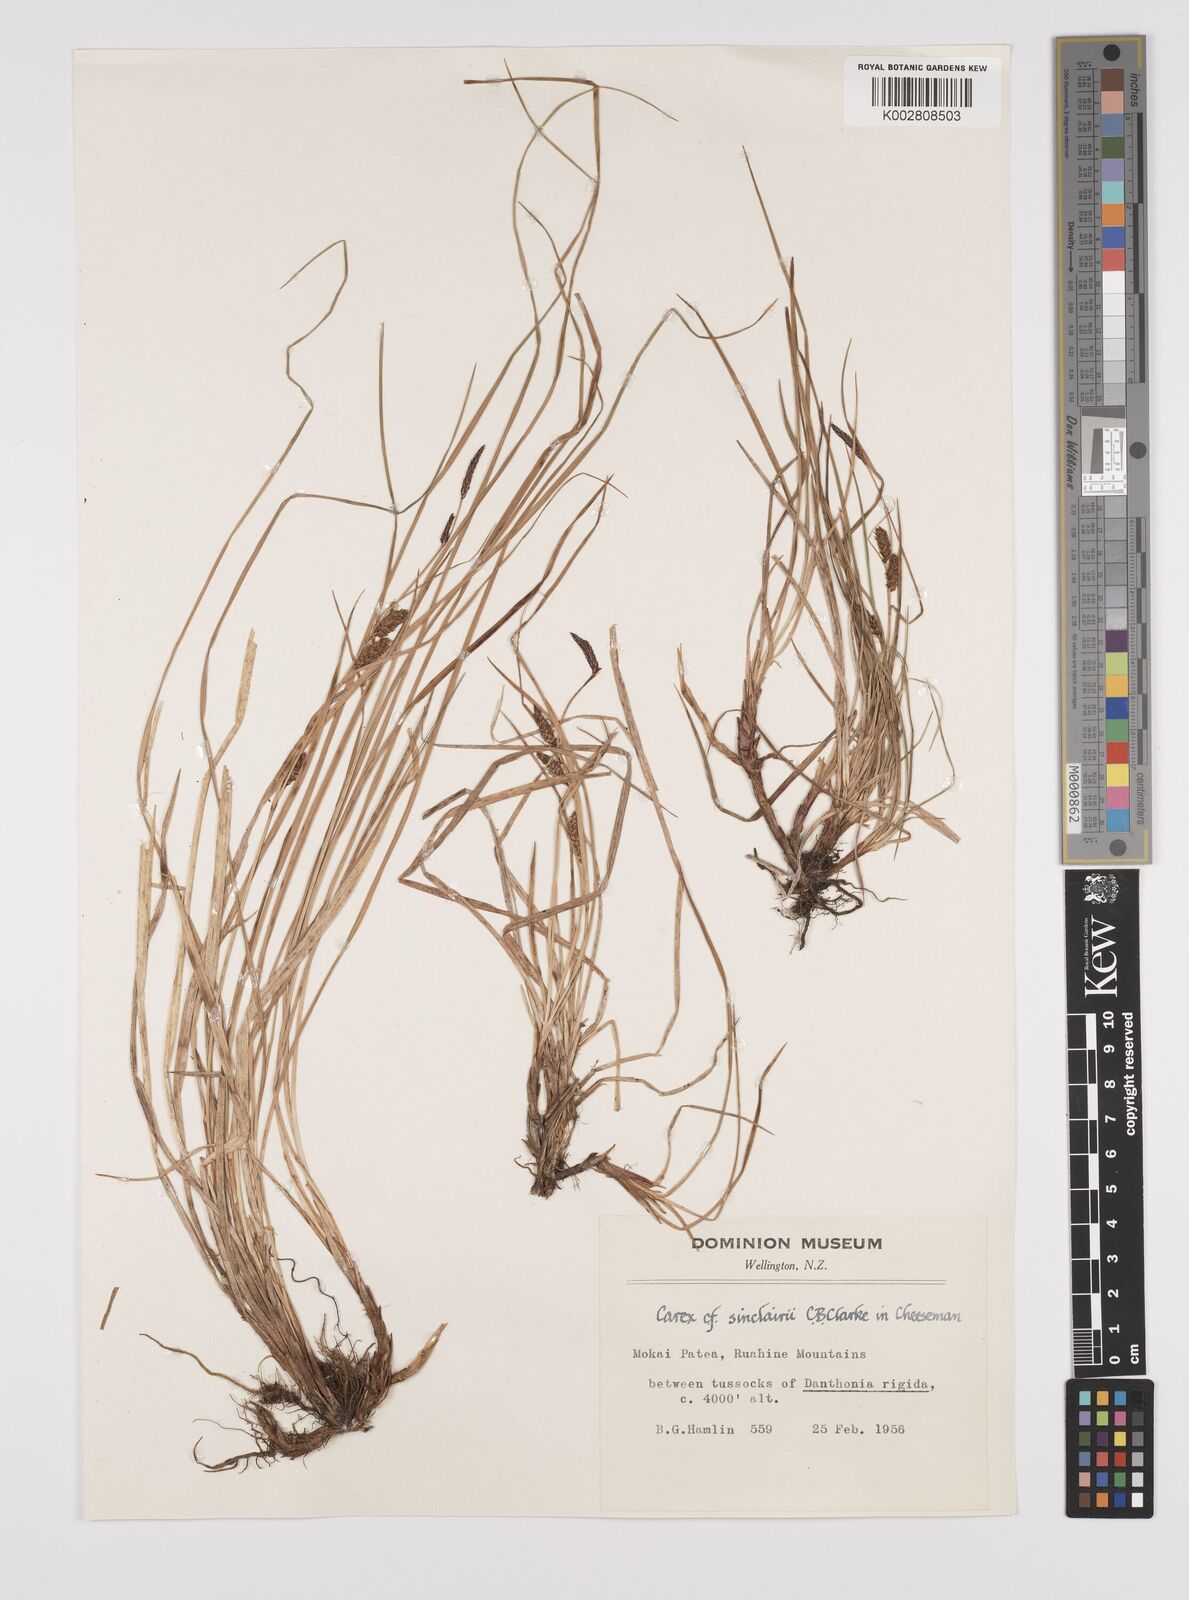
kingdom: Plantae
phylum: Tracheophyta
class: Liliopsida
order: Poales
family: Cyperaceae
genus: Carex
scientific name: Carex sinclairii
